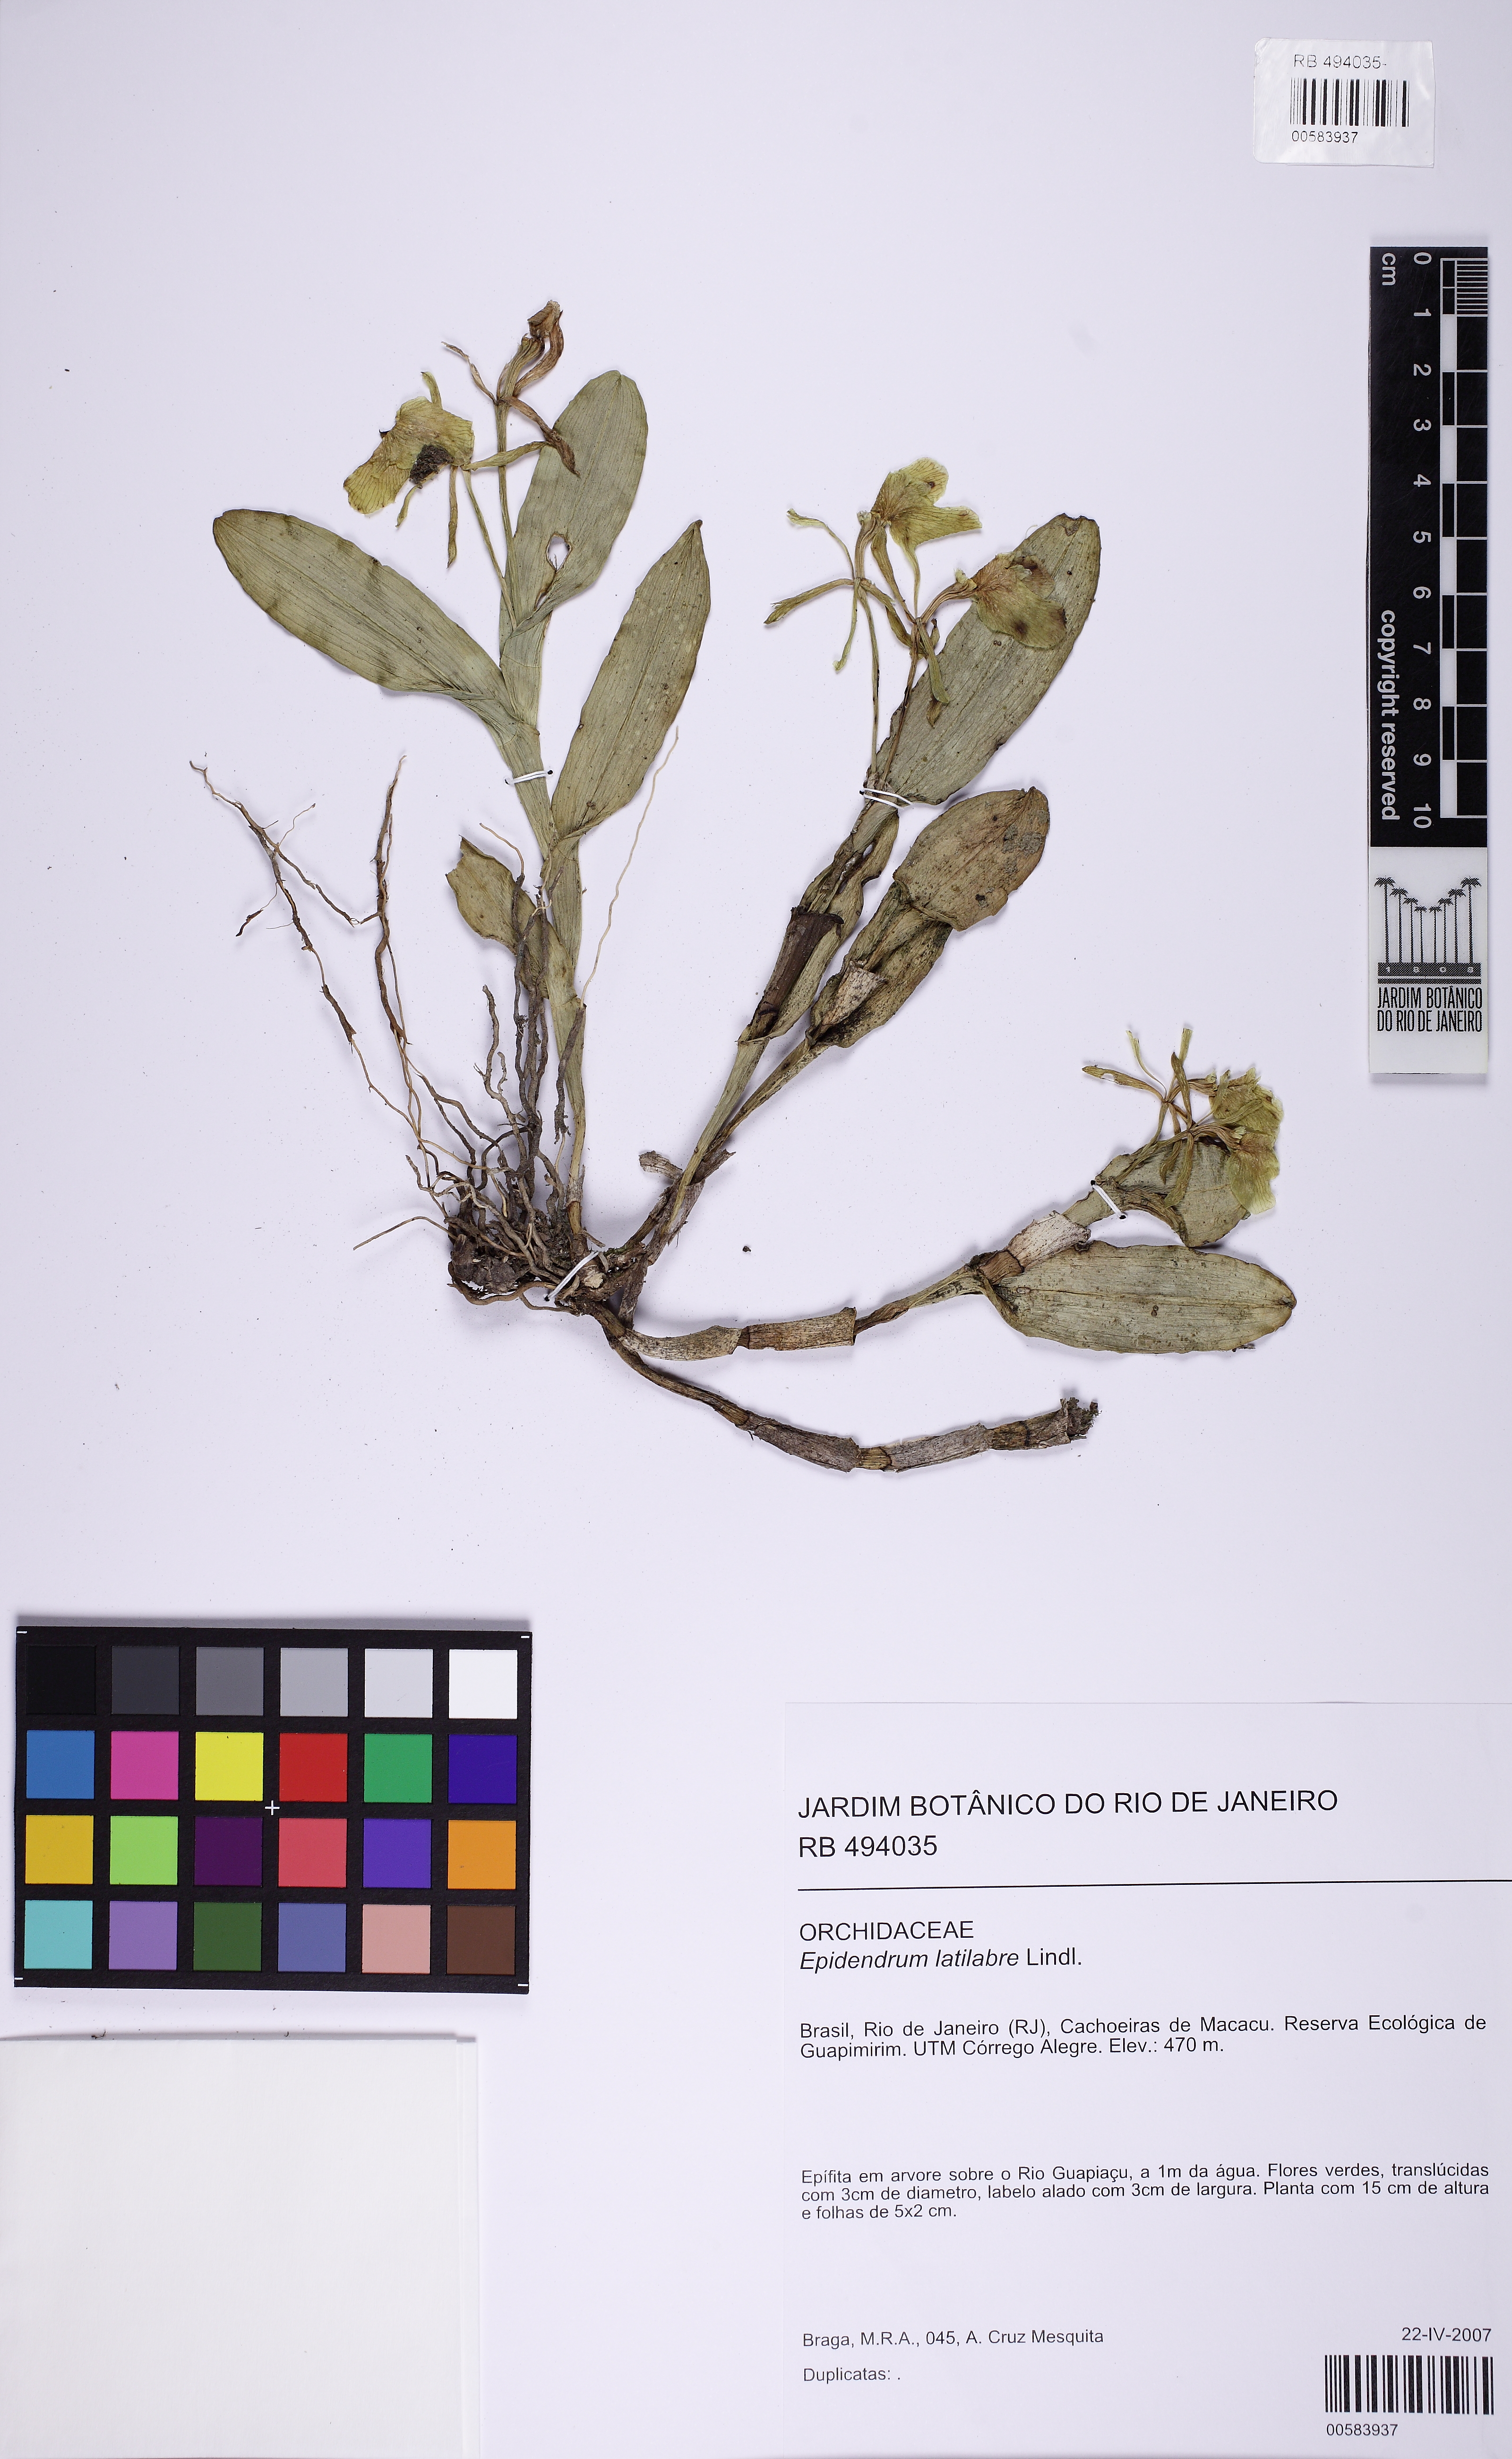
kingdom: Plantae
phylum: Tracheophyta
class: Liliopsida
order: Asparagales
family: Orchidaceae
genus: Epidendrum
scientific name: Epidendrum latilabre
